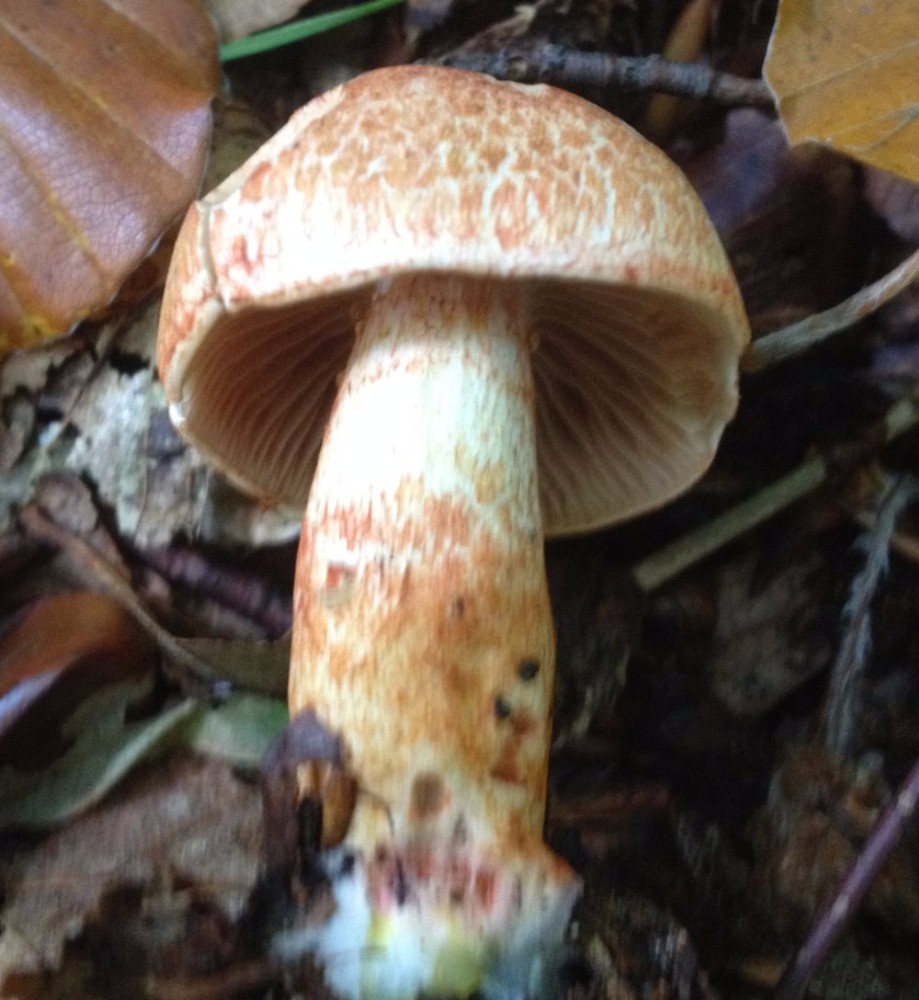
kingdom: Fungi
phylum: Basidiomycota
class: Agaricomycetes
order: Agaricales
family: Cortinariaceae
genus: Cortinarius
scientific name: Cortinarius bolaris
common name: cinnoberskællet slørhat
